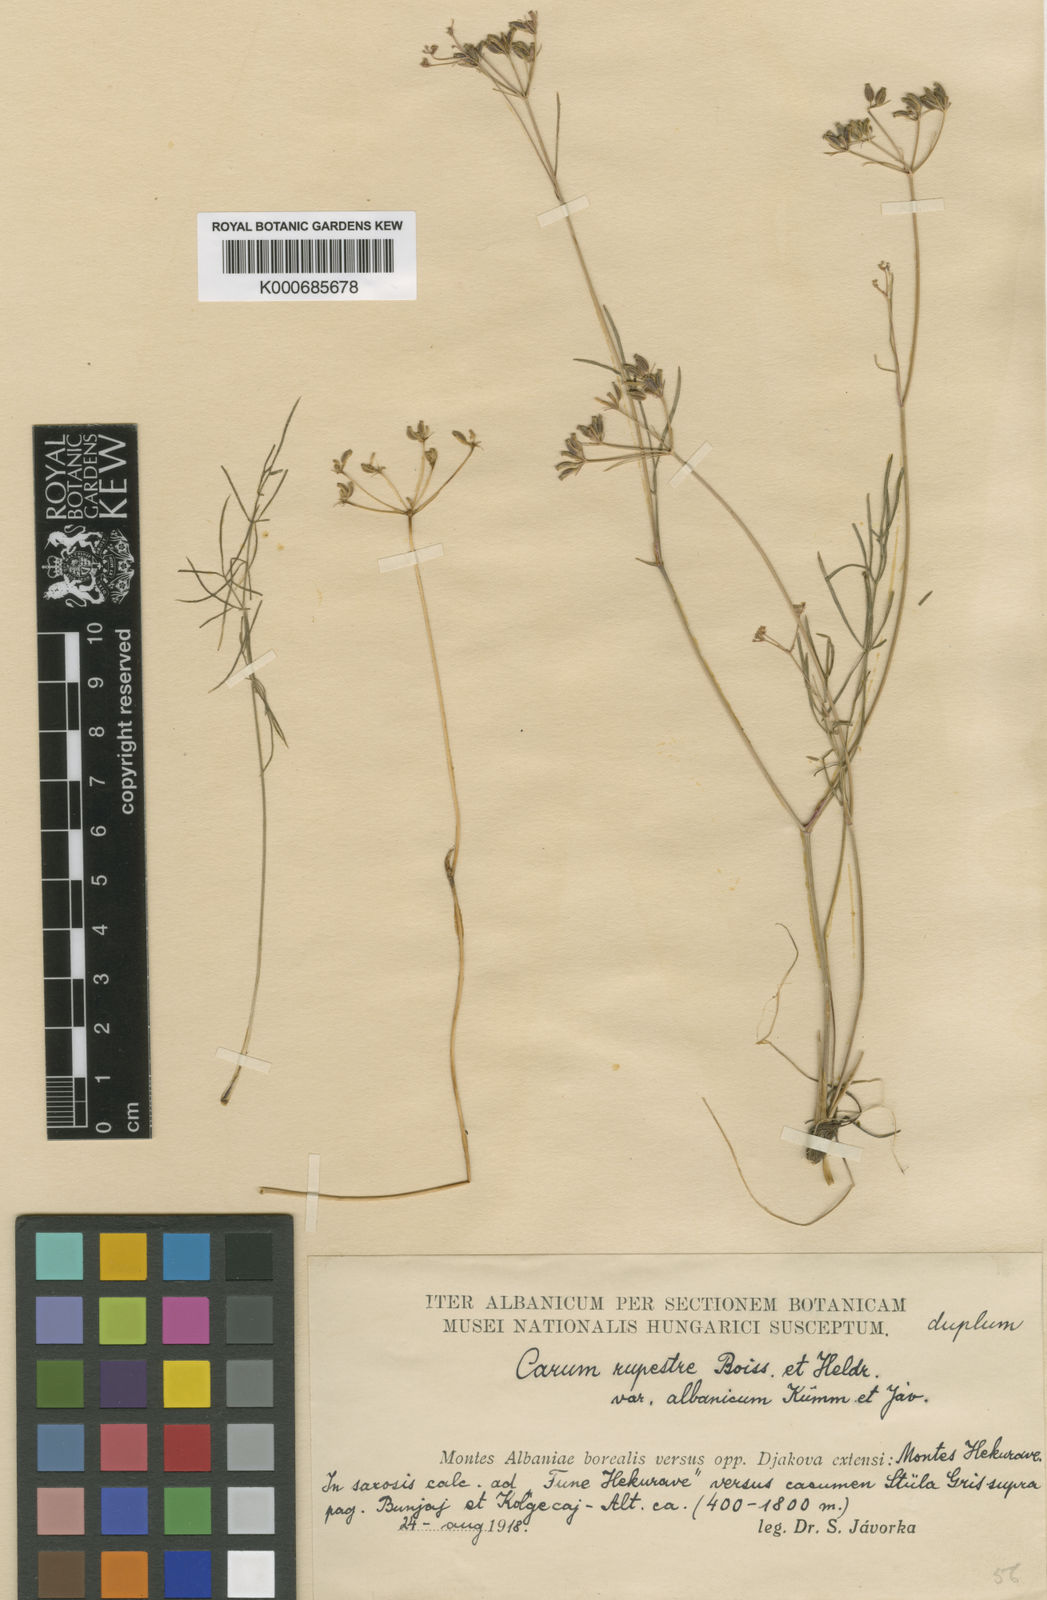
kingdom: Plantae
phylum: Tracheophyta
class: Magnoliopsida
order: Apiales
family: Apiaceae
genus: Carum
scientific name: Carum heldreichii
